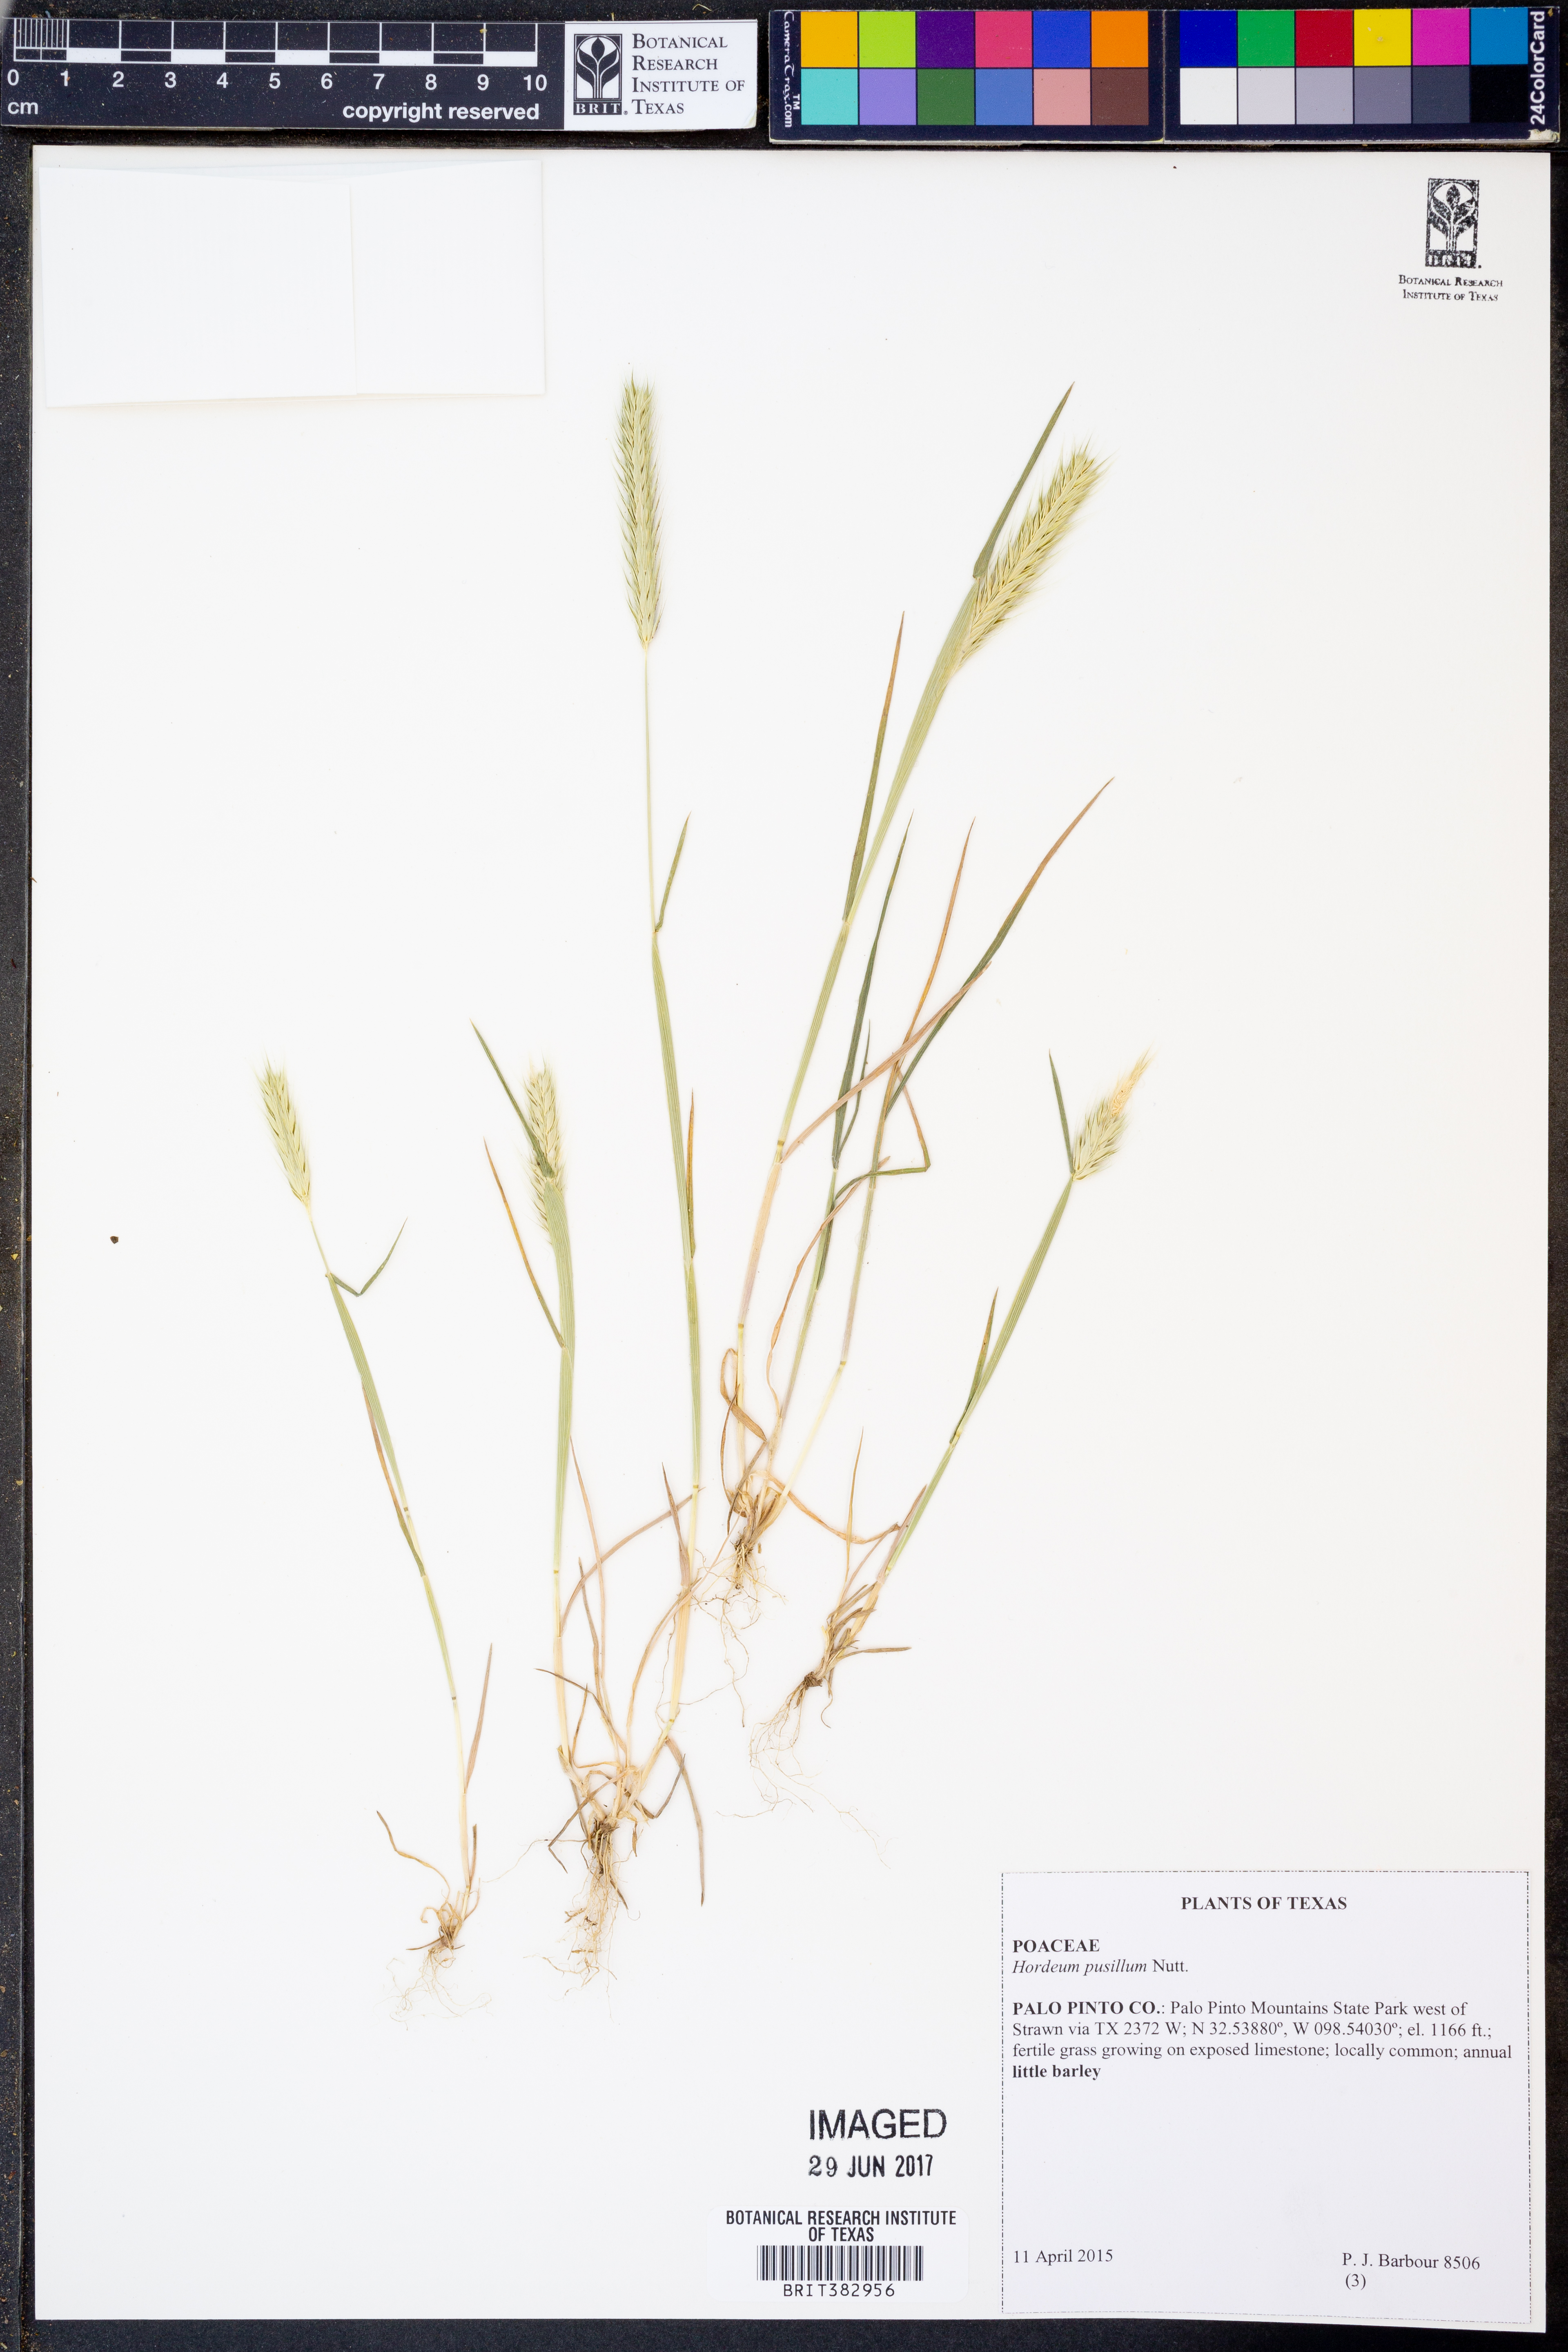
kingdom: Plantae
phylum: Tracheophyta
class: Liliopsida
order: Poales
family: Poaceae
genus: Hordeum
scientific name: Hordeum pusillum
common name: Little barley
